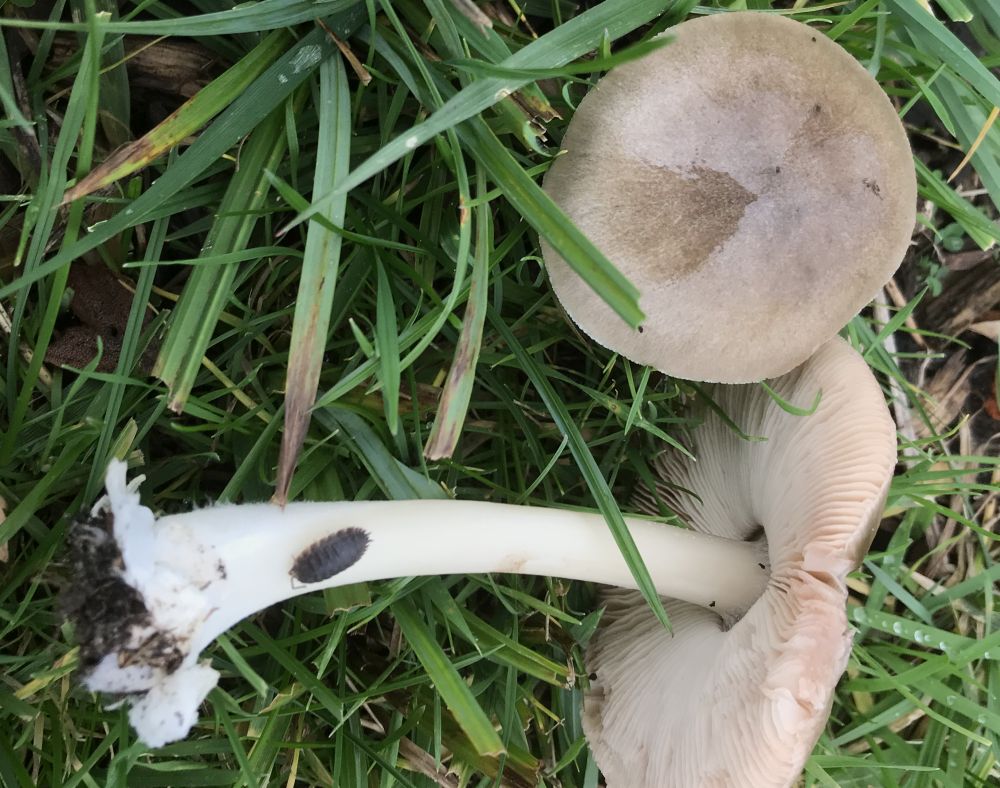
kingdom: Fungi
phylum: Basidiomycota
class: Agaricomycetes
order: Agaricales
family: Pluteaceae
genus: Volvopluteus
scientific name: Volvopluteus gloiocephalus
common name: høj posesvamp
